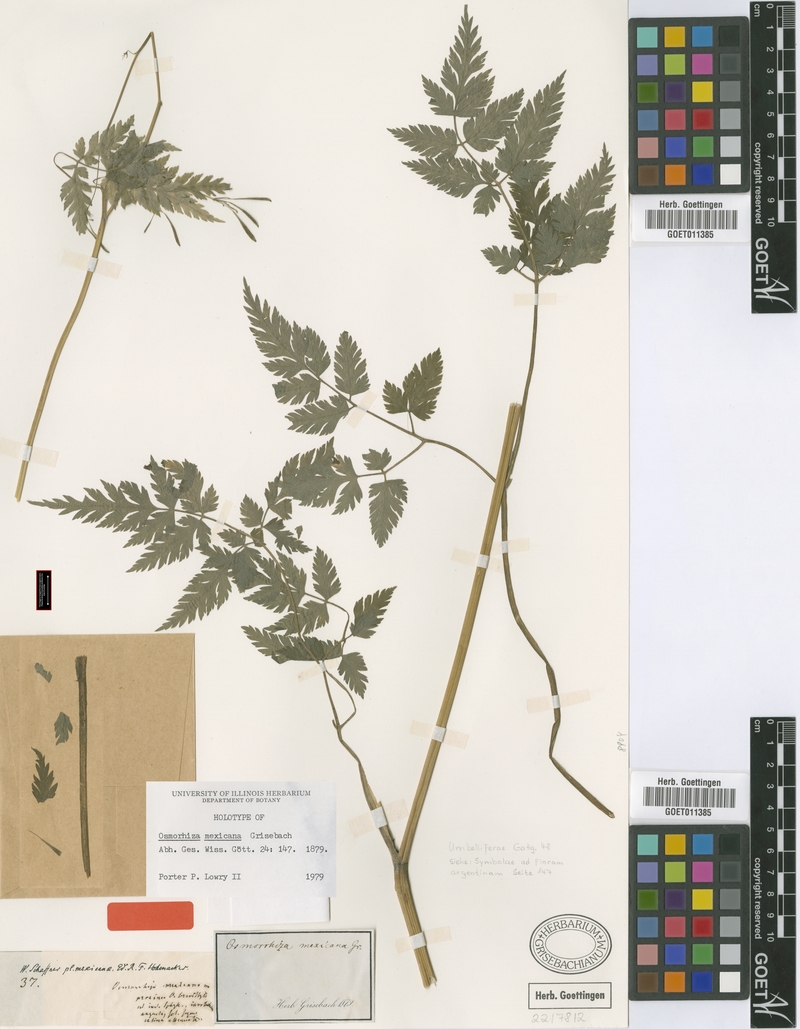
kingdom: Plantae
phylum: Tracheophyta
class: Magnoliopsida
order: Apiales
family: Apiaceae
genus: Osmorhiza
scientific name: Osmorhiza mexicana
